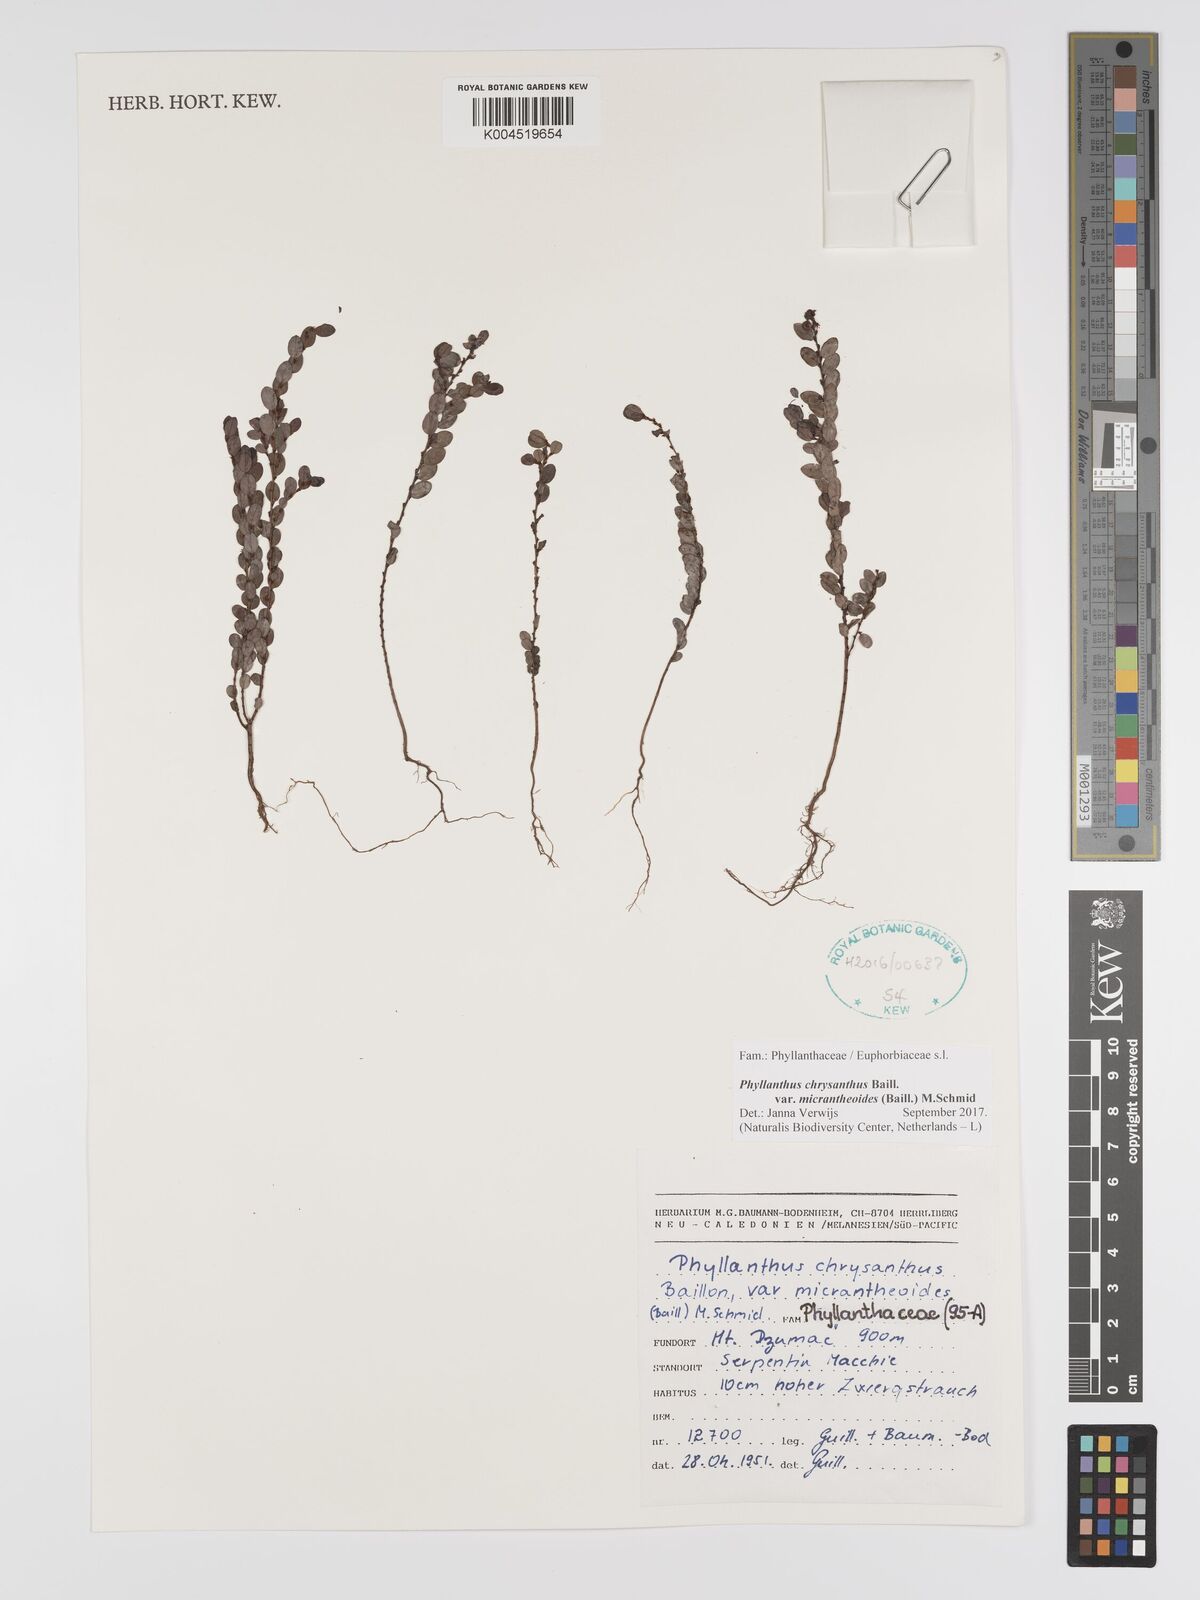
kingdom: Plantae
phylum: Tracheophyta
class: Magnoliopsida
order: Malpighiales
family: Phyllanthaceae
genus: Phyllanthus
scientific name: Phyllanthus chrysanthus
